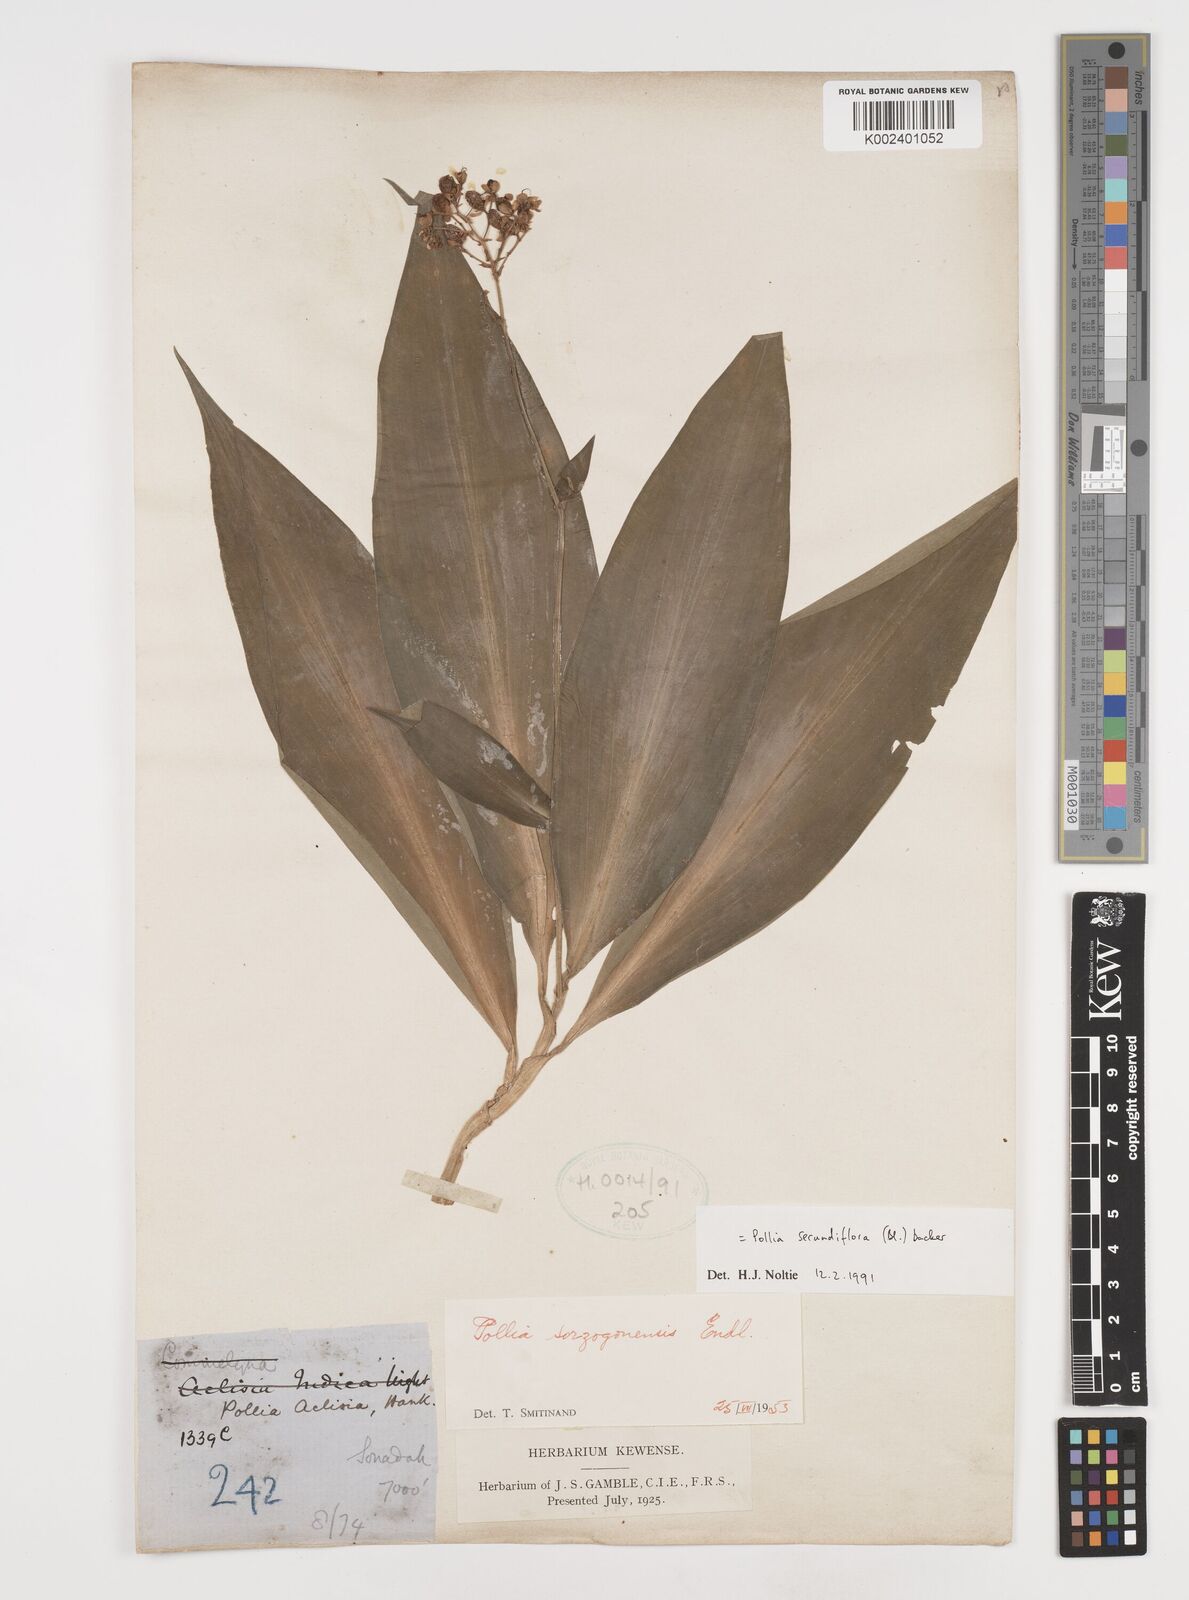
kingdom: Plantae
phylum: Tracheophyta
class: Liliopsida
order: Commelinales
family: Commelinaceae
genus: Pollia
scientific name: Pollia secundiflora
